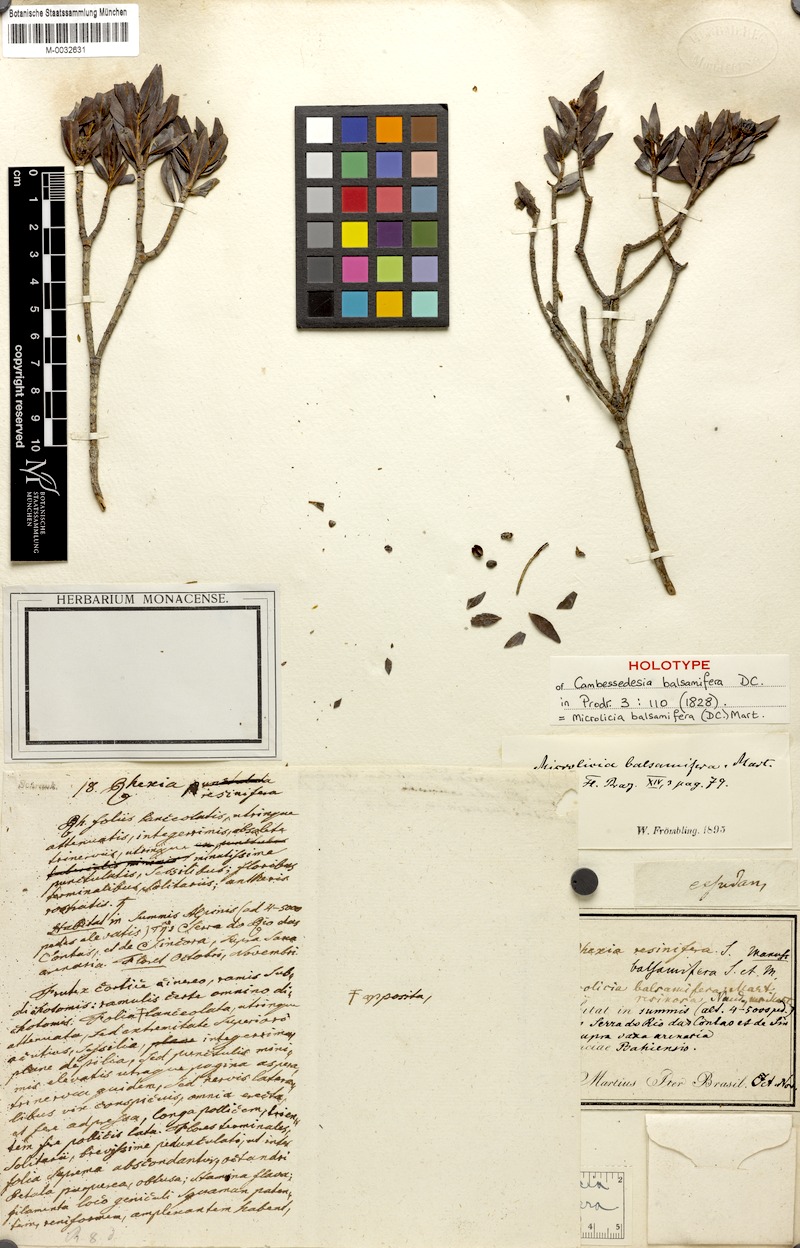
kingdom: Plantae
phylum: Tracheophyta
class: Magnoliopsida
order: Myrtales
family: Melastomataceae
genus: Microlicia
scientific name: Microlicia balsamifera
